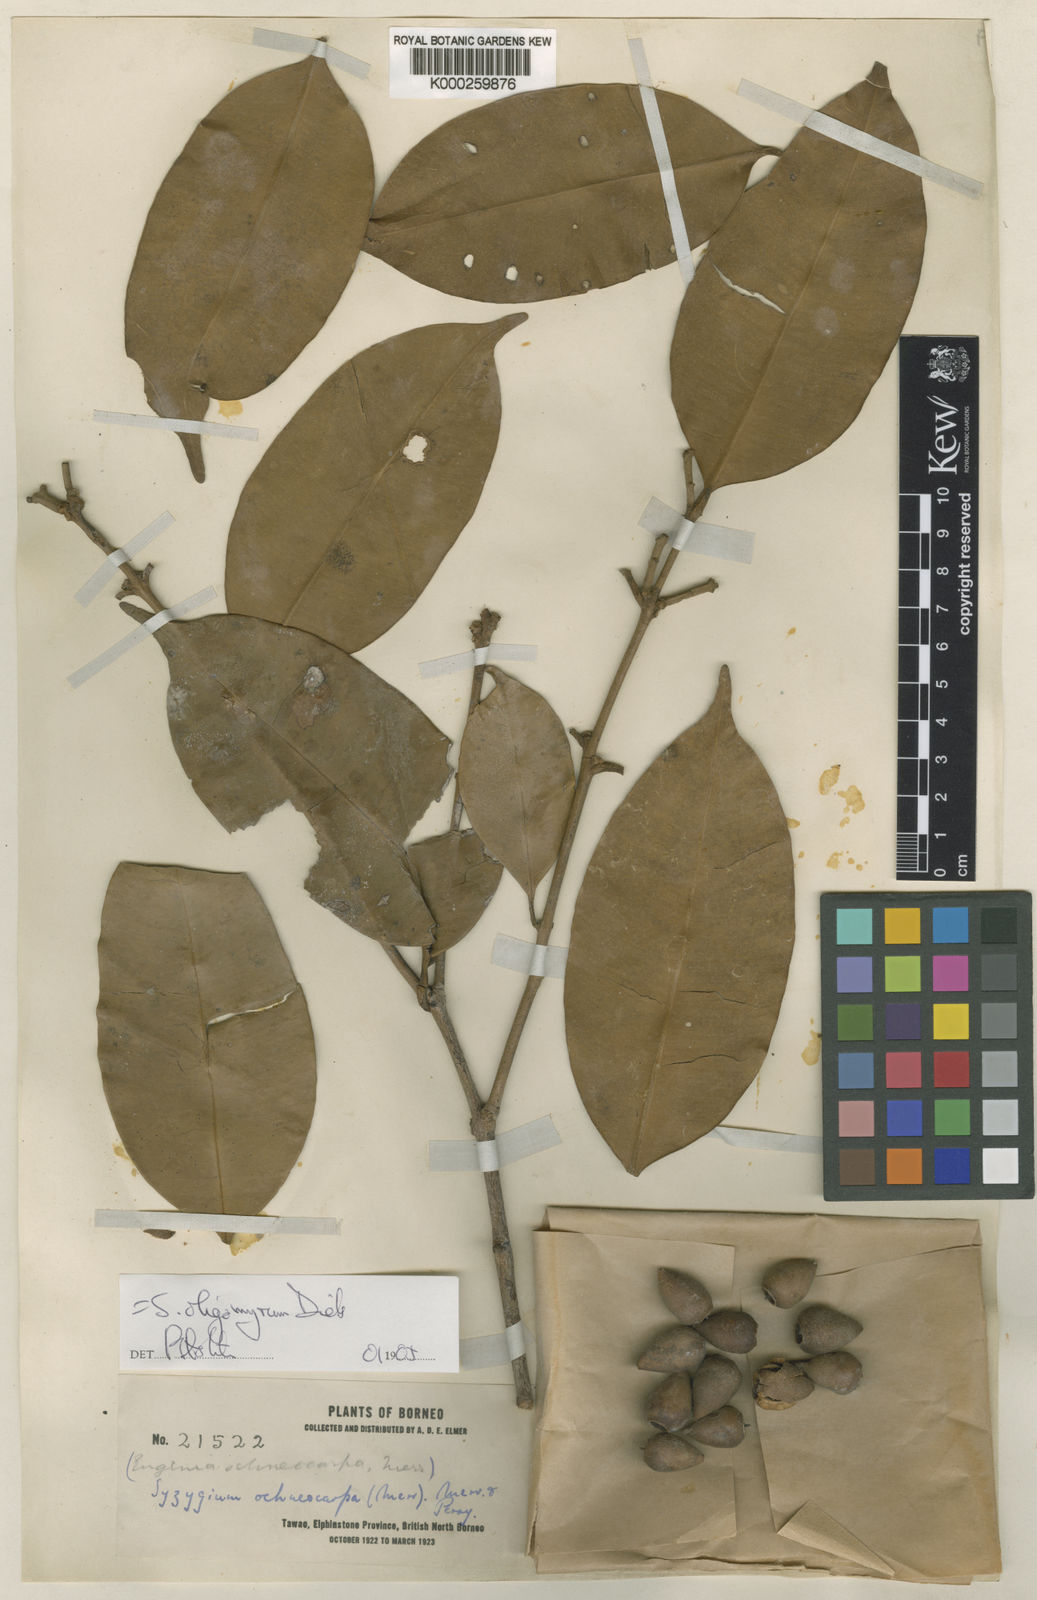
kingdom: Plantae
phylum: Tracheophyta
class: Magnoliopsida
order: Myrtales
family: Myrtaceae
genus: Syzygium
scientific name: Syzygium oligomyrum
